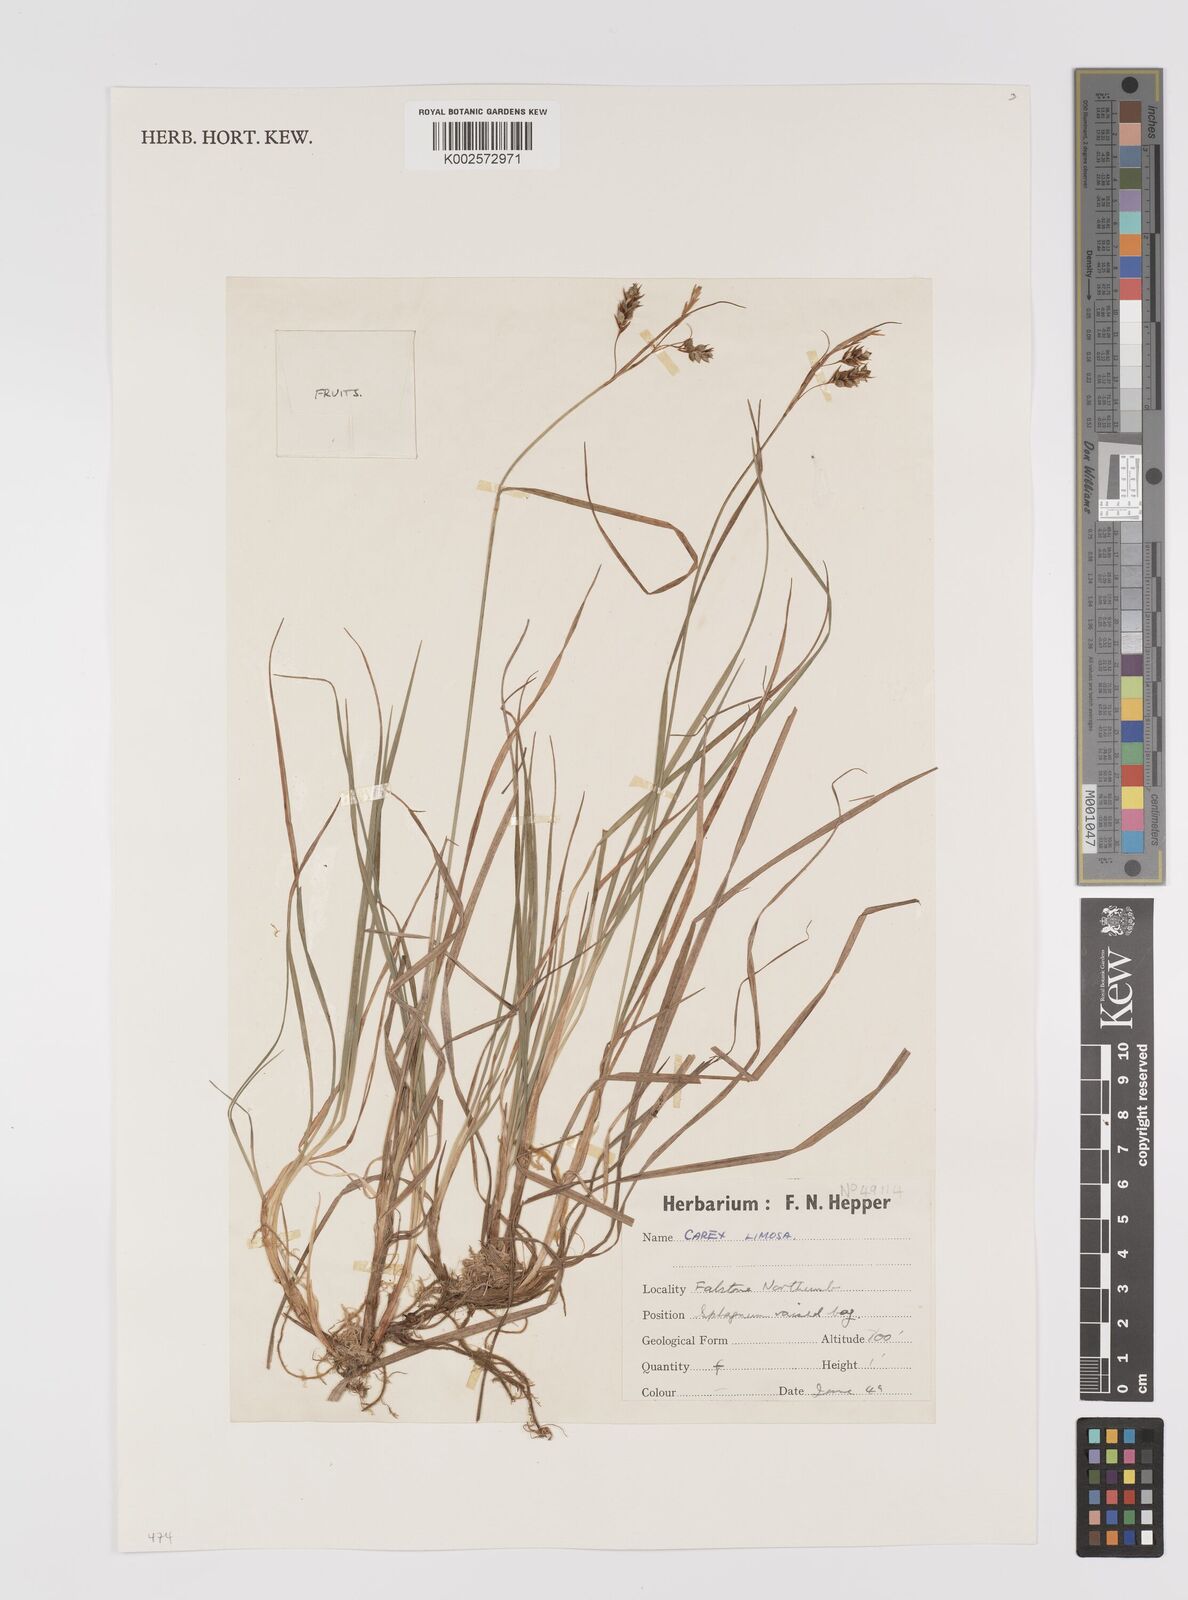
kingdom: Plantae
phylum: Tracheophyta
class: Liliopsida
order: Poales
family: Cyperaceae
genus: Carex
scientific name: Carex limosa
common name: Bog sedge
